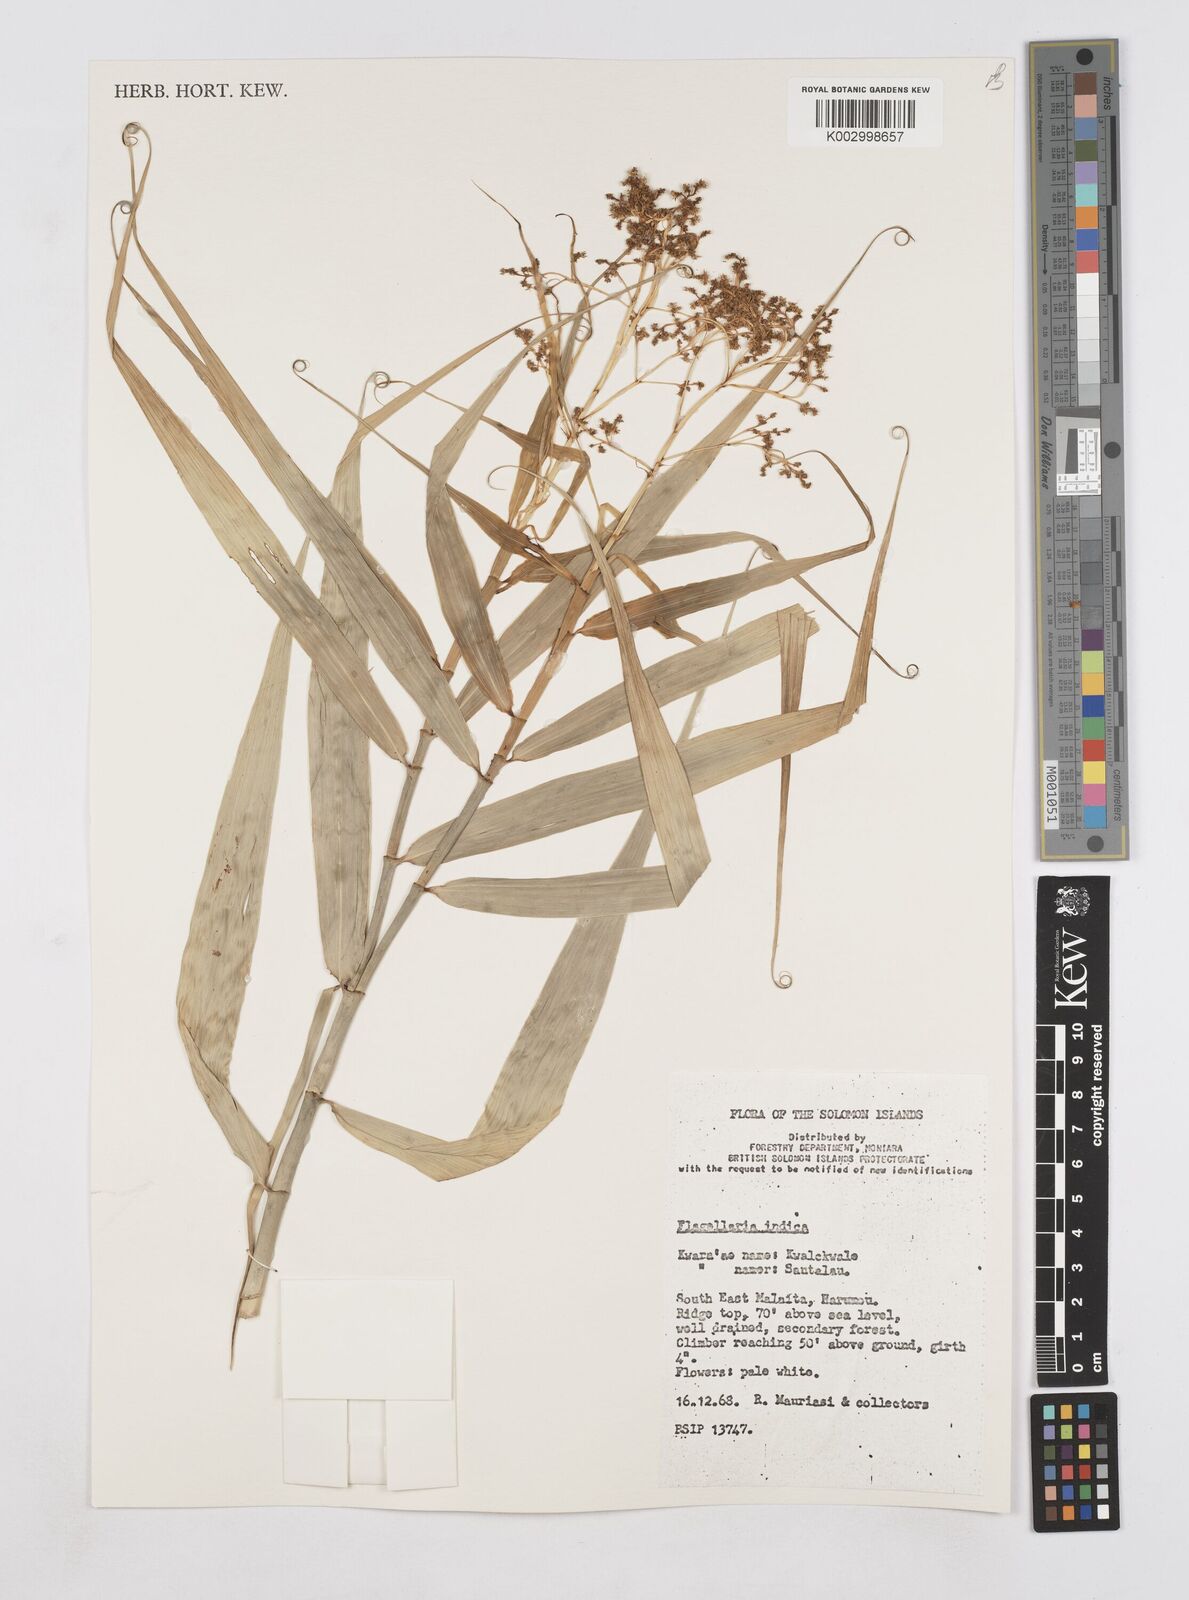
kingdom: Plantae
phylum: Tracheophyta
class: Liliopsida
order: Poales
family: Flagellariaceae
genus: Flagellaria
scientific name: Flagellaria indica
